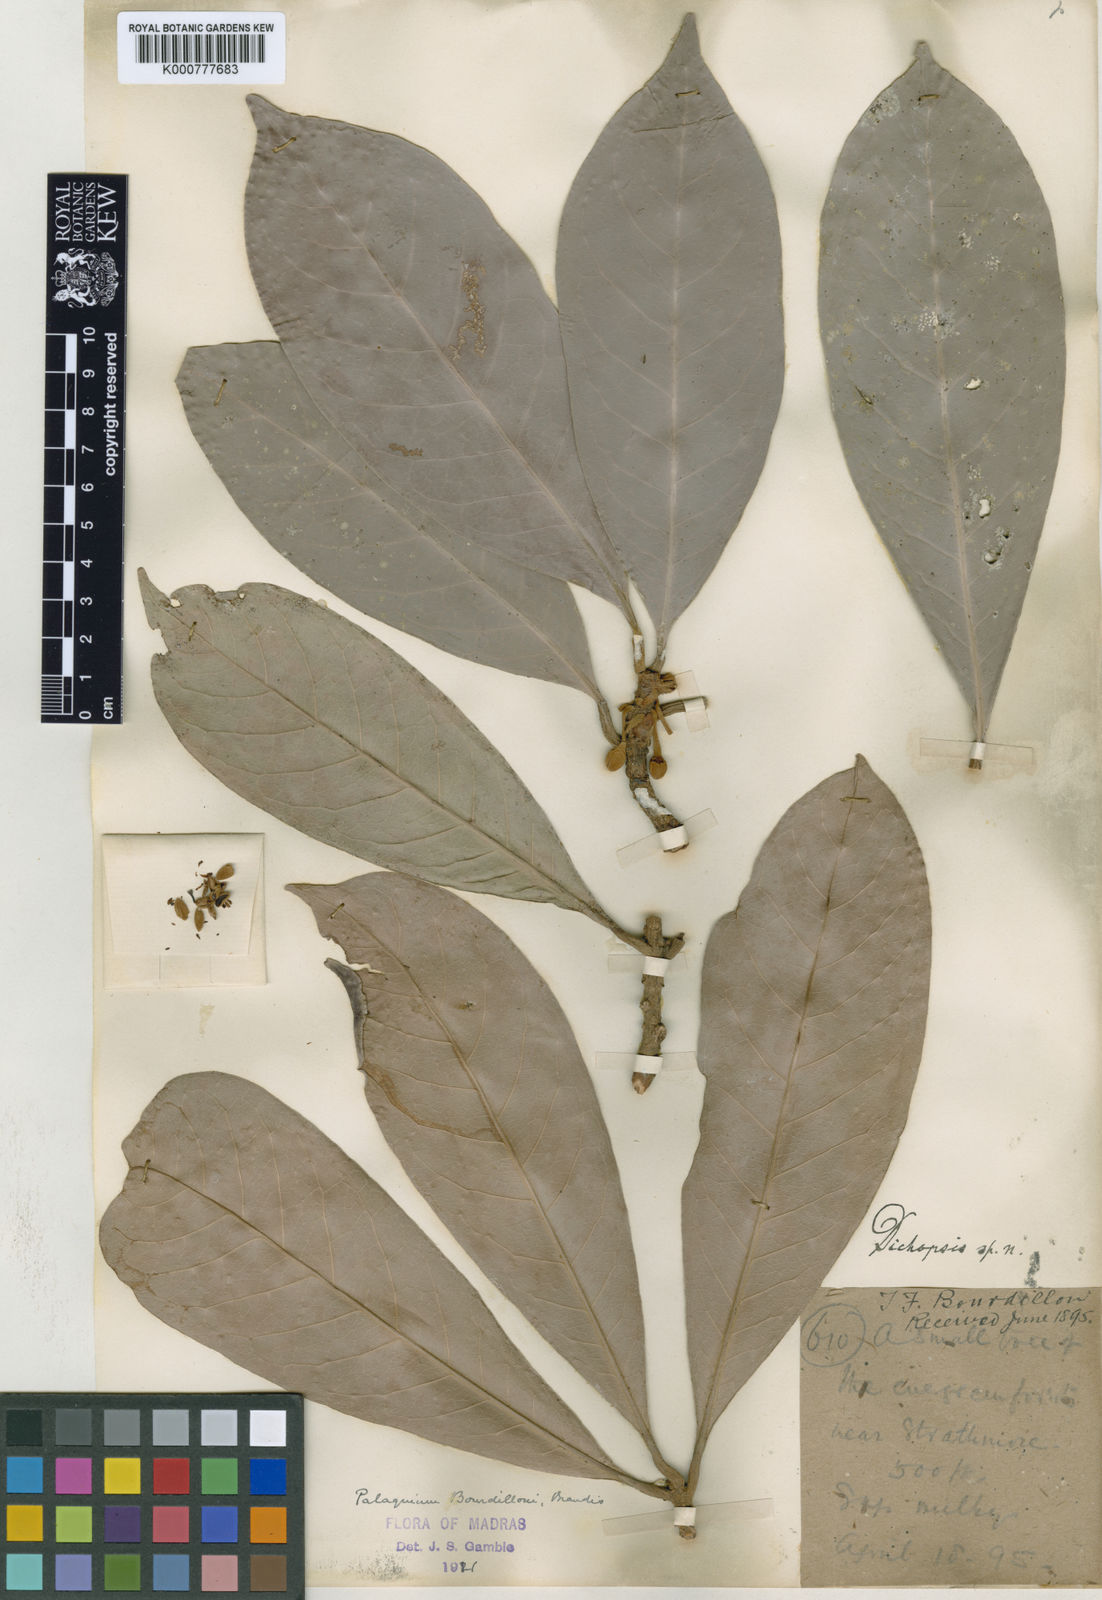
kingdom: Plantae
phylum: Tracheophyta
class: Magnoliopsida
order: Ericales
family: Sapotaceae
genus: Palaquium
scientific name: Palaquium bourdillonii
